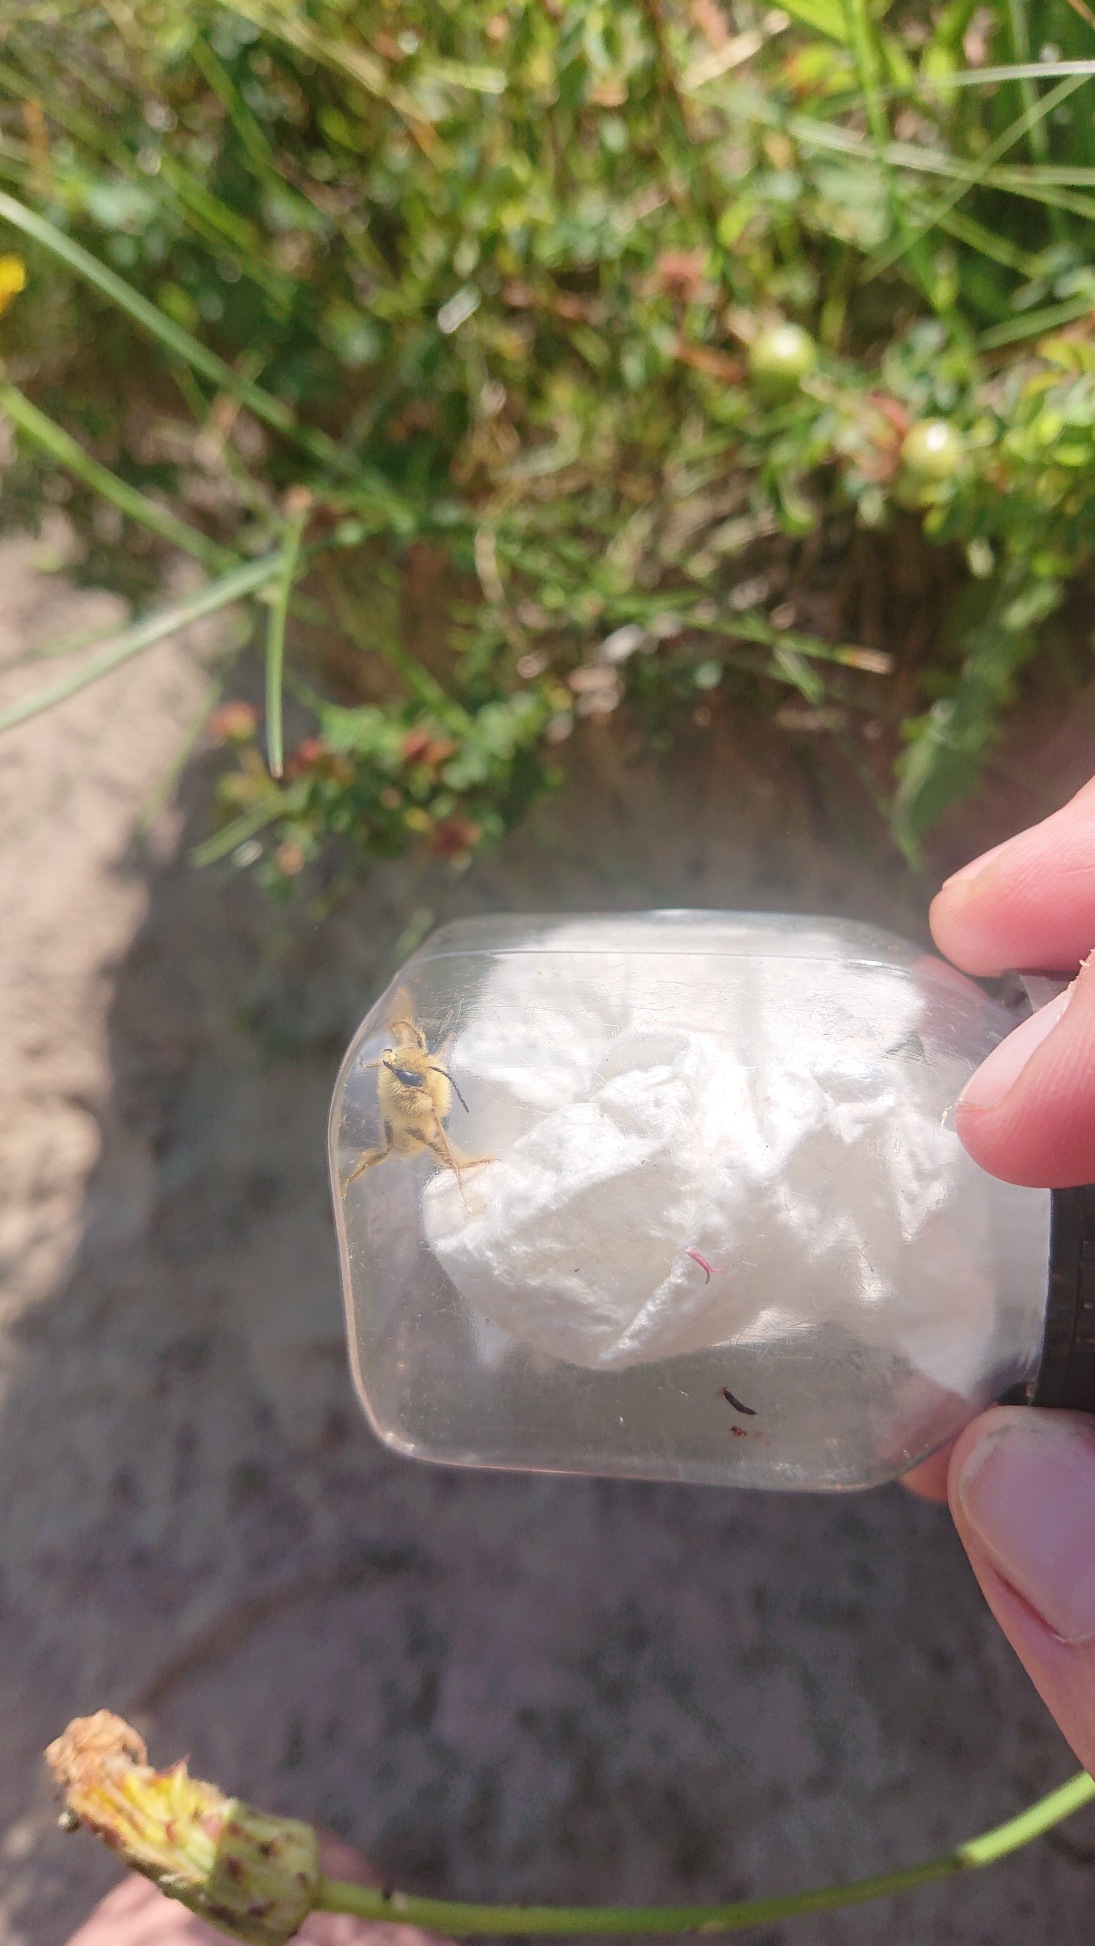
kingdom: Animalia
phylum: Arthropoda
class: Insecta
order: Hymenoptera
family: Melittidae
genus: Dasypoda
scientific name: Dasypoda hirtipes
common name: Pragtbuksebi
